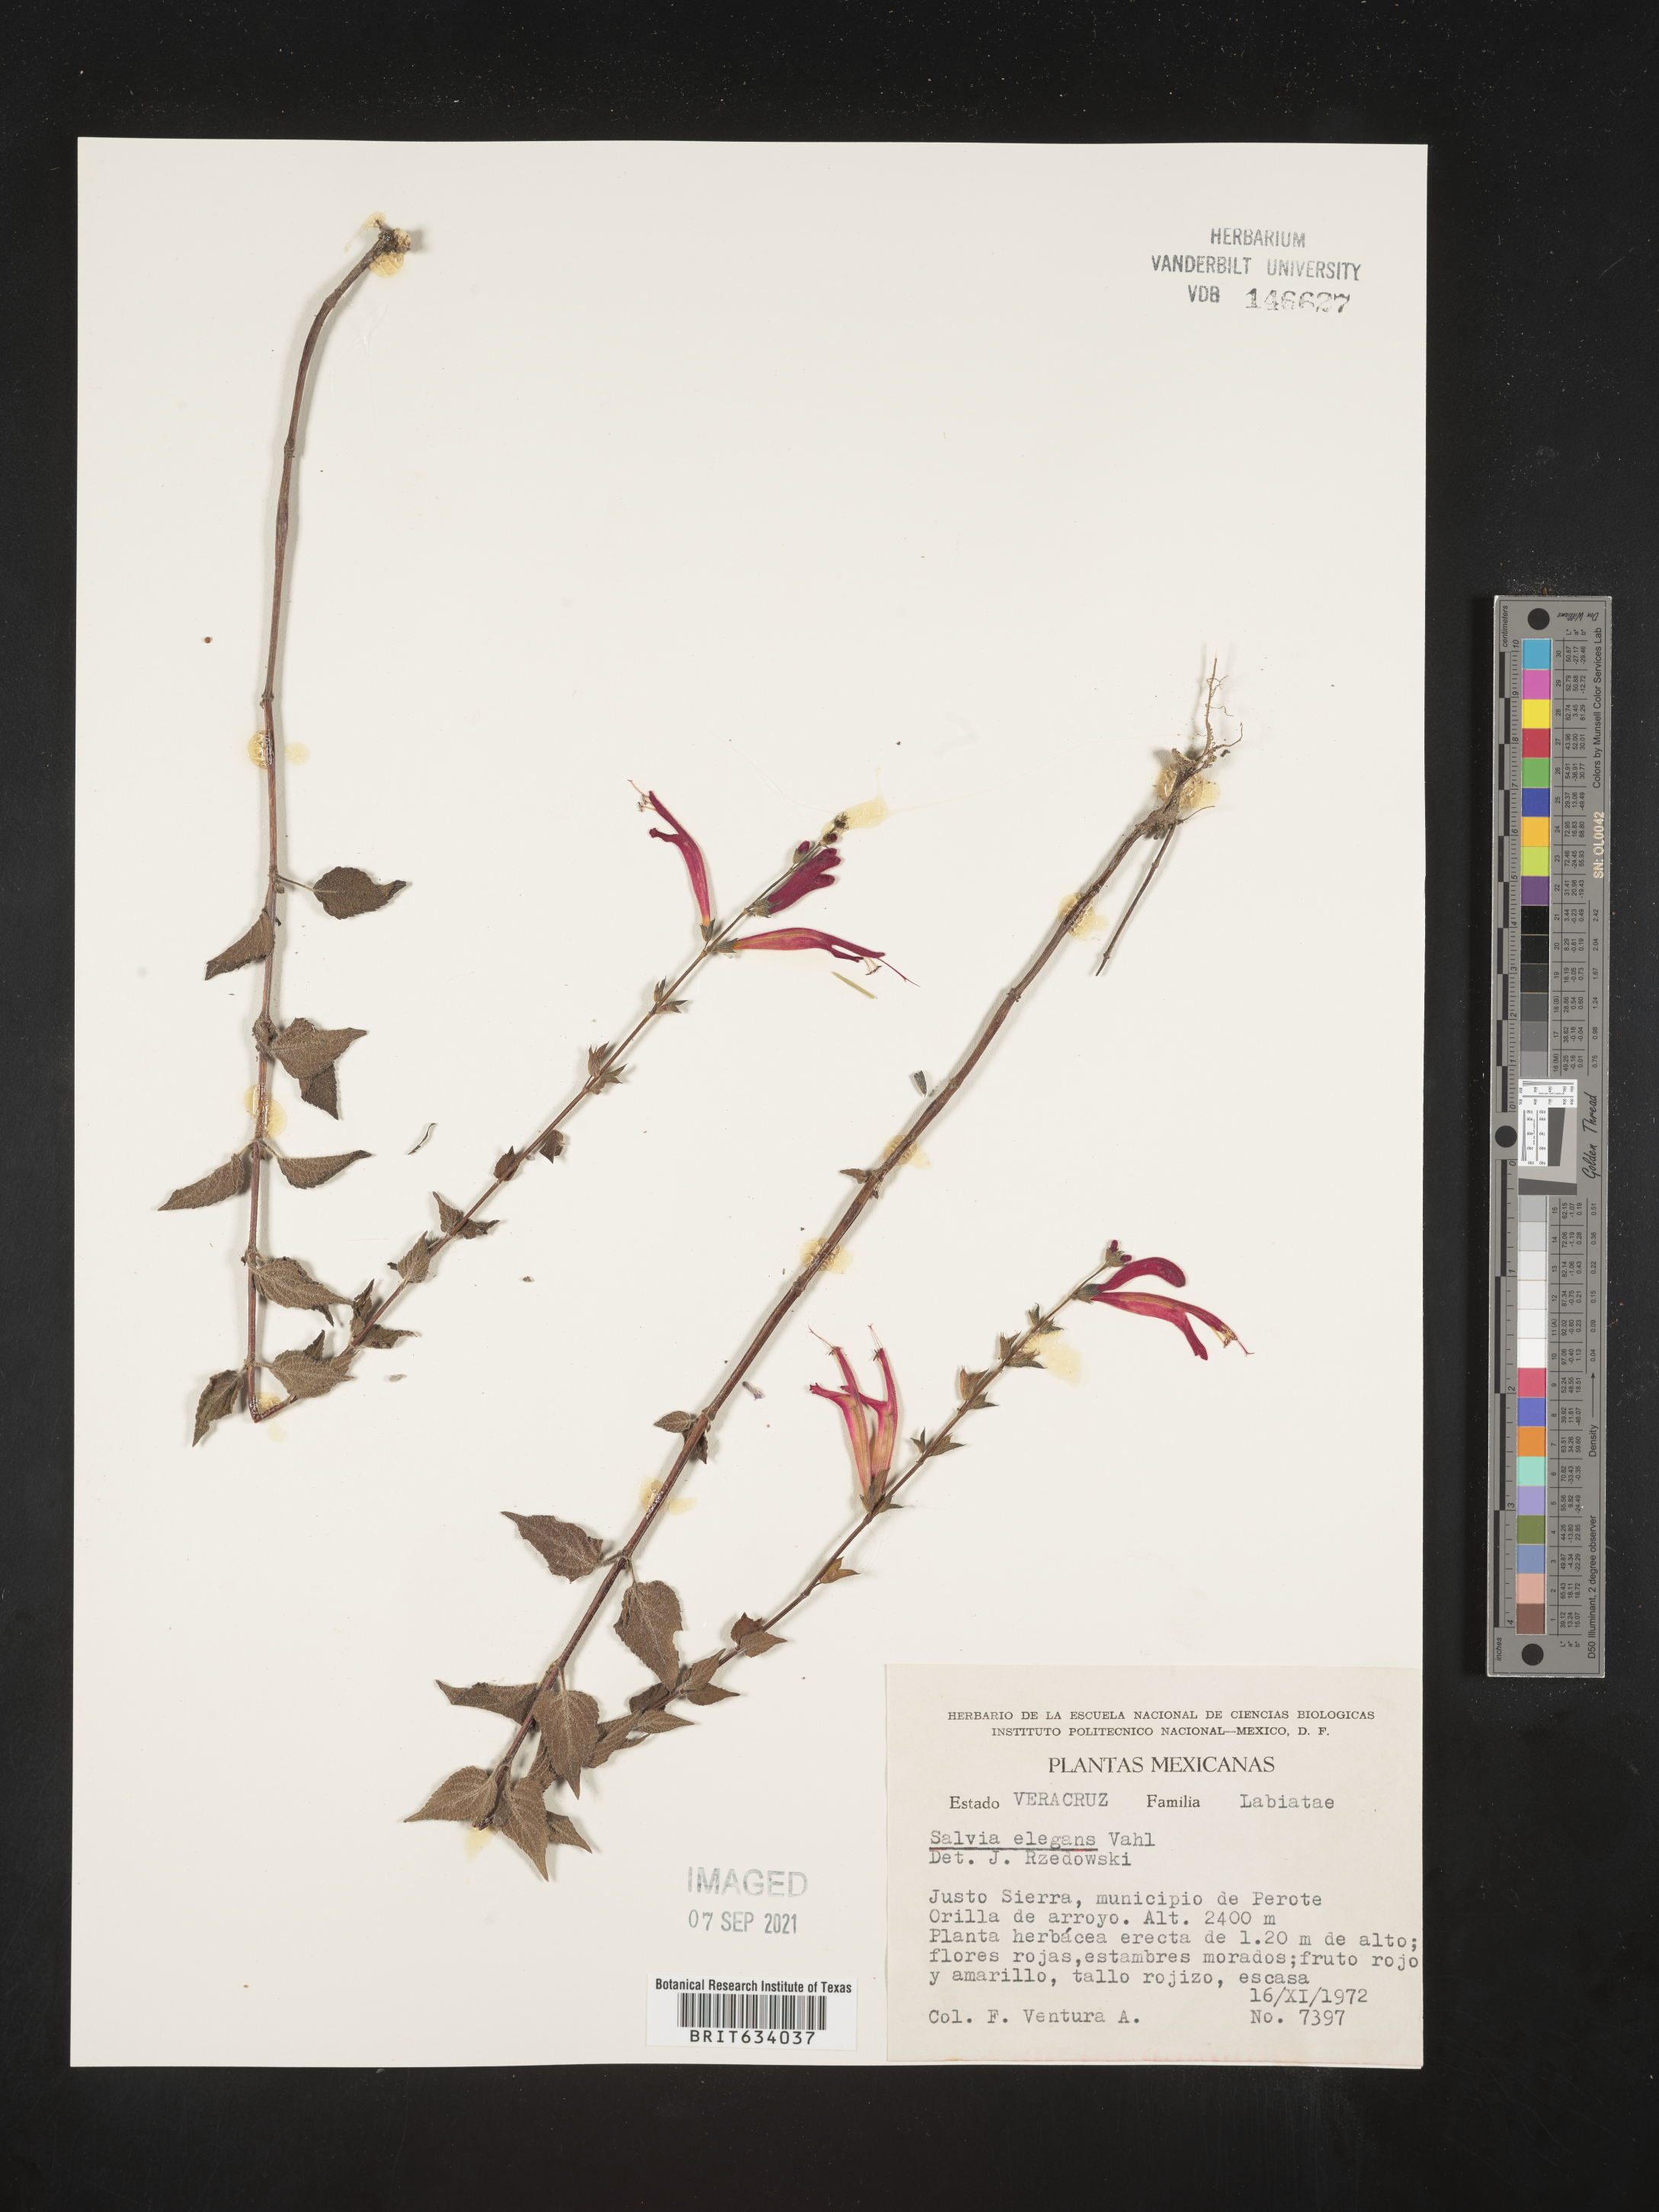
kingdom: Plantae
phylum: Tracheophyta
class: Magnoliopsida
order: Lamiales
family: Lamiaceae
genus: Salvia
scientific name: Salvia
